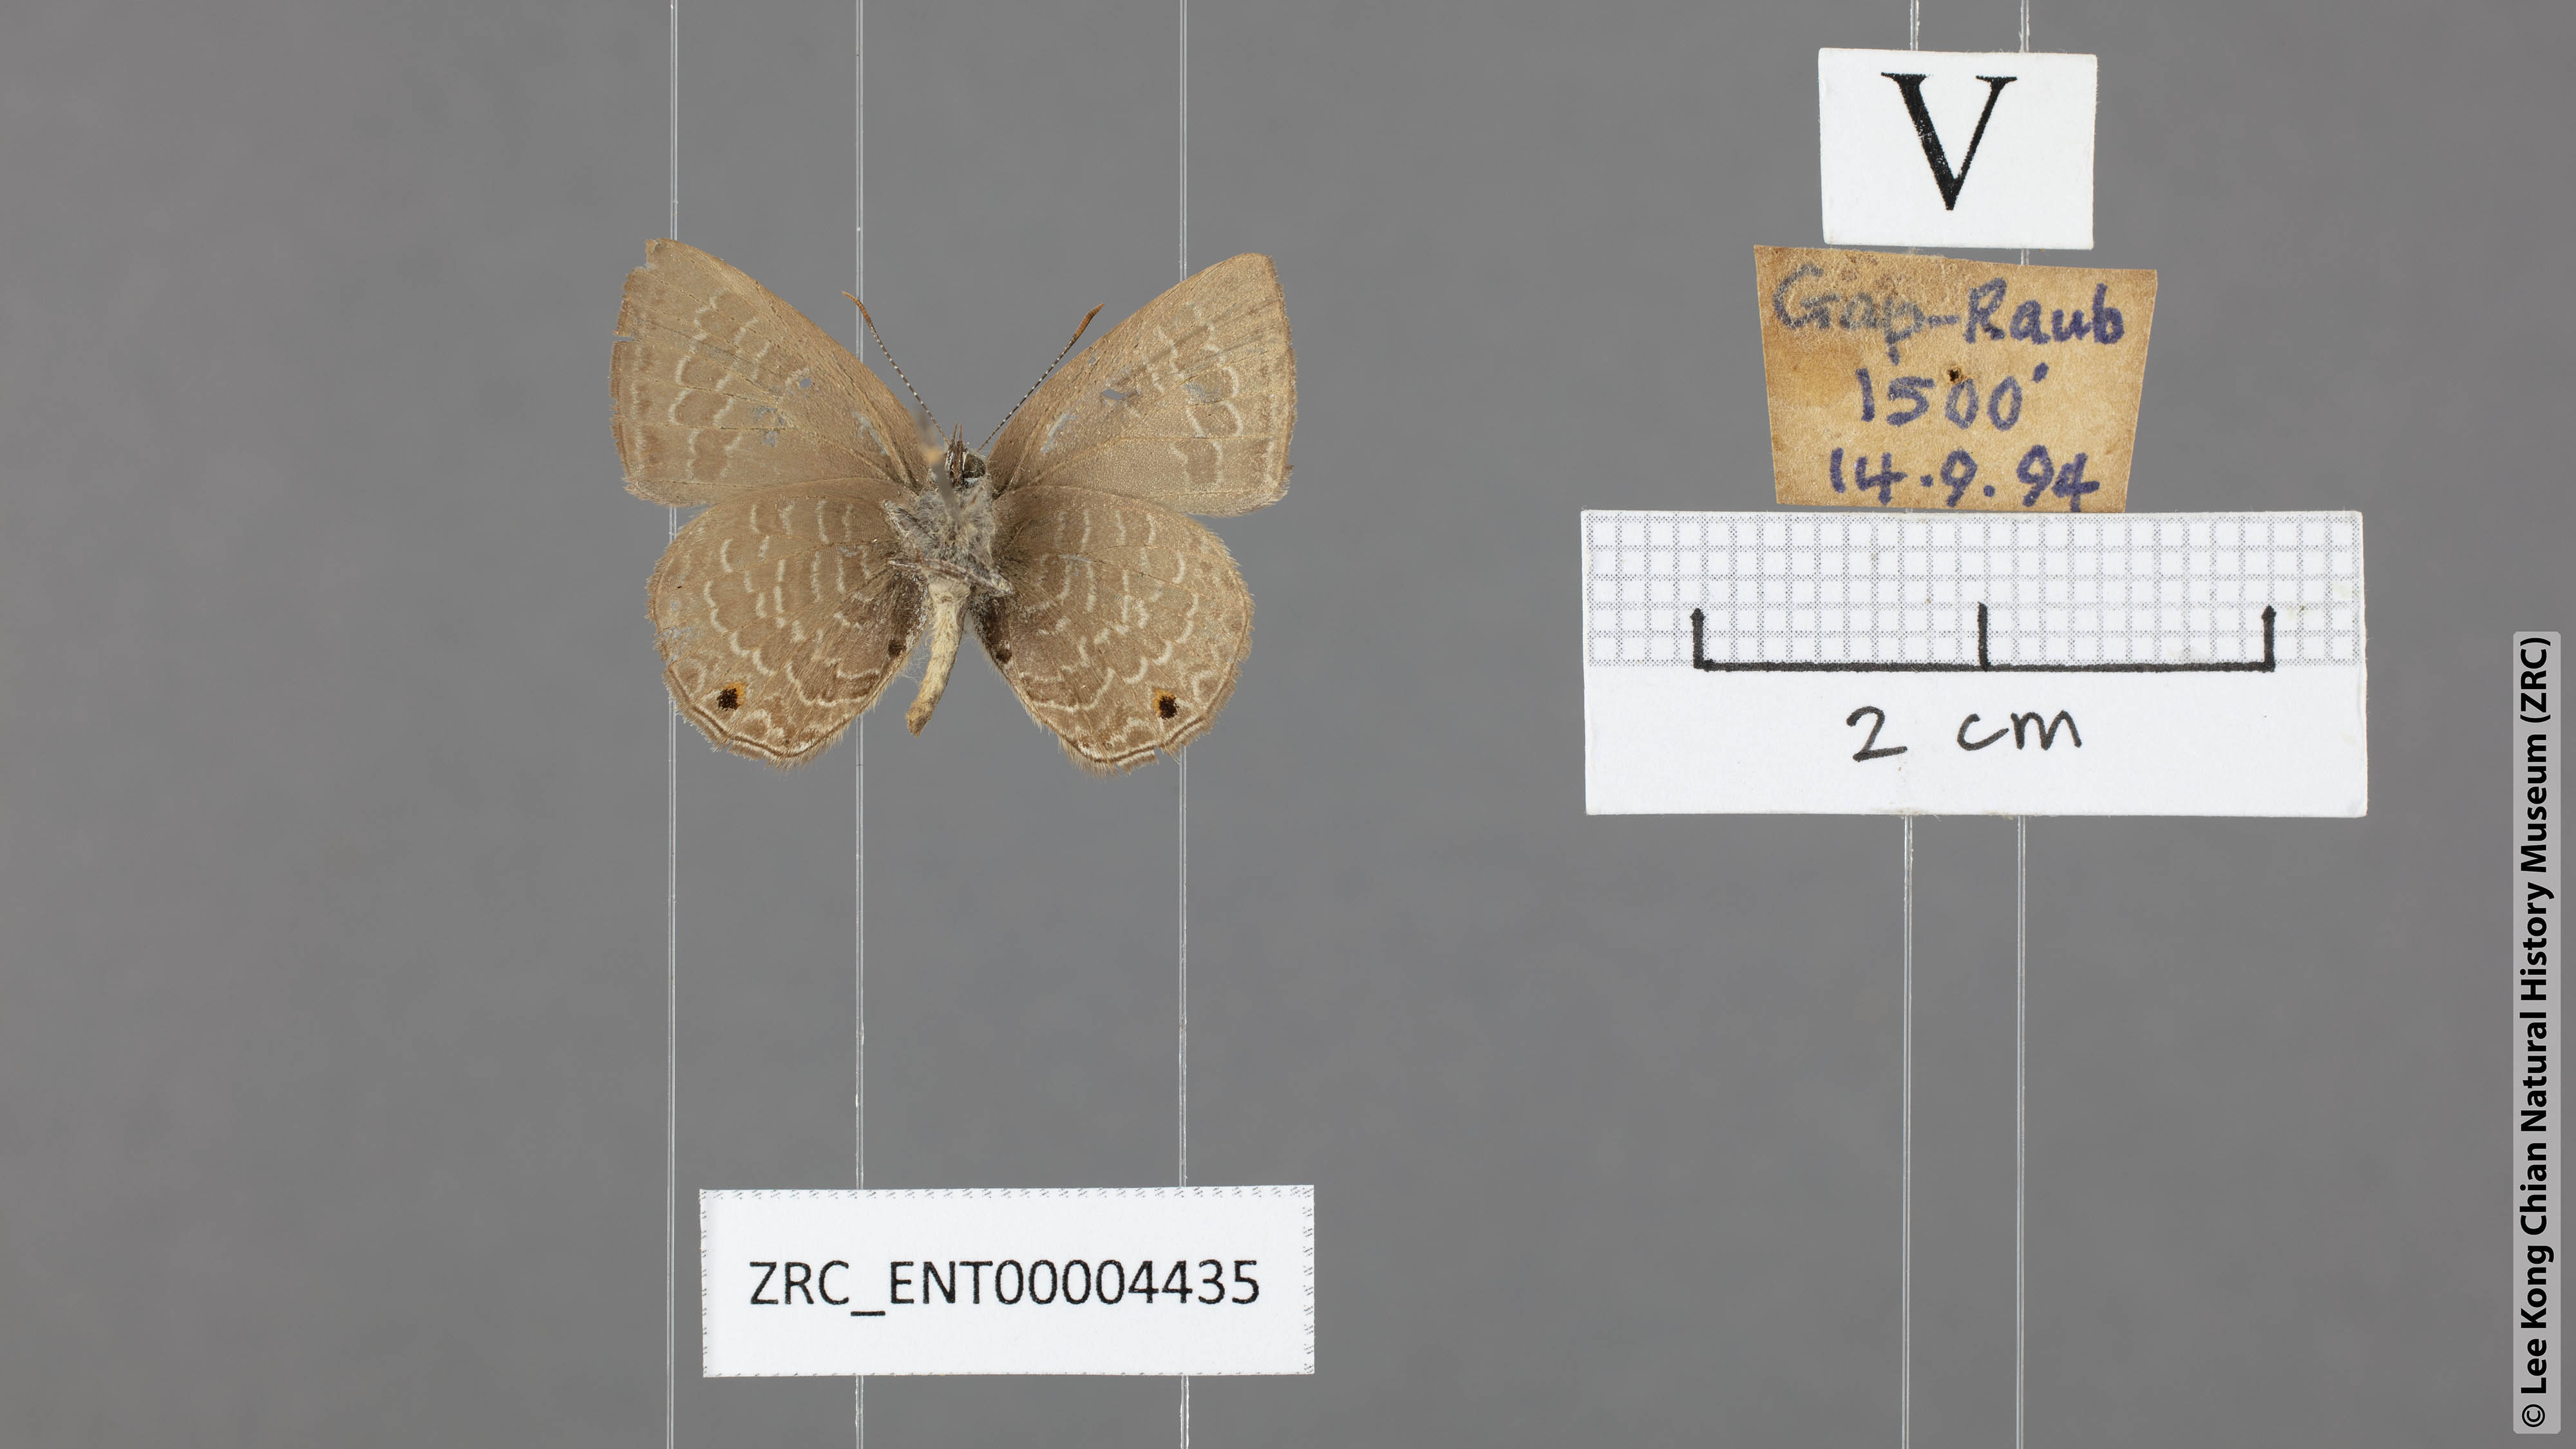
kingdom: Animalia
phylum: Arthropoda
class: Insecta
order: Lepidoptera
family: Lycaenidae
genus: Petrelaea
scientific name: Petrelaea dana
